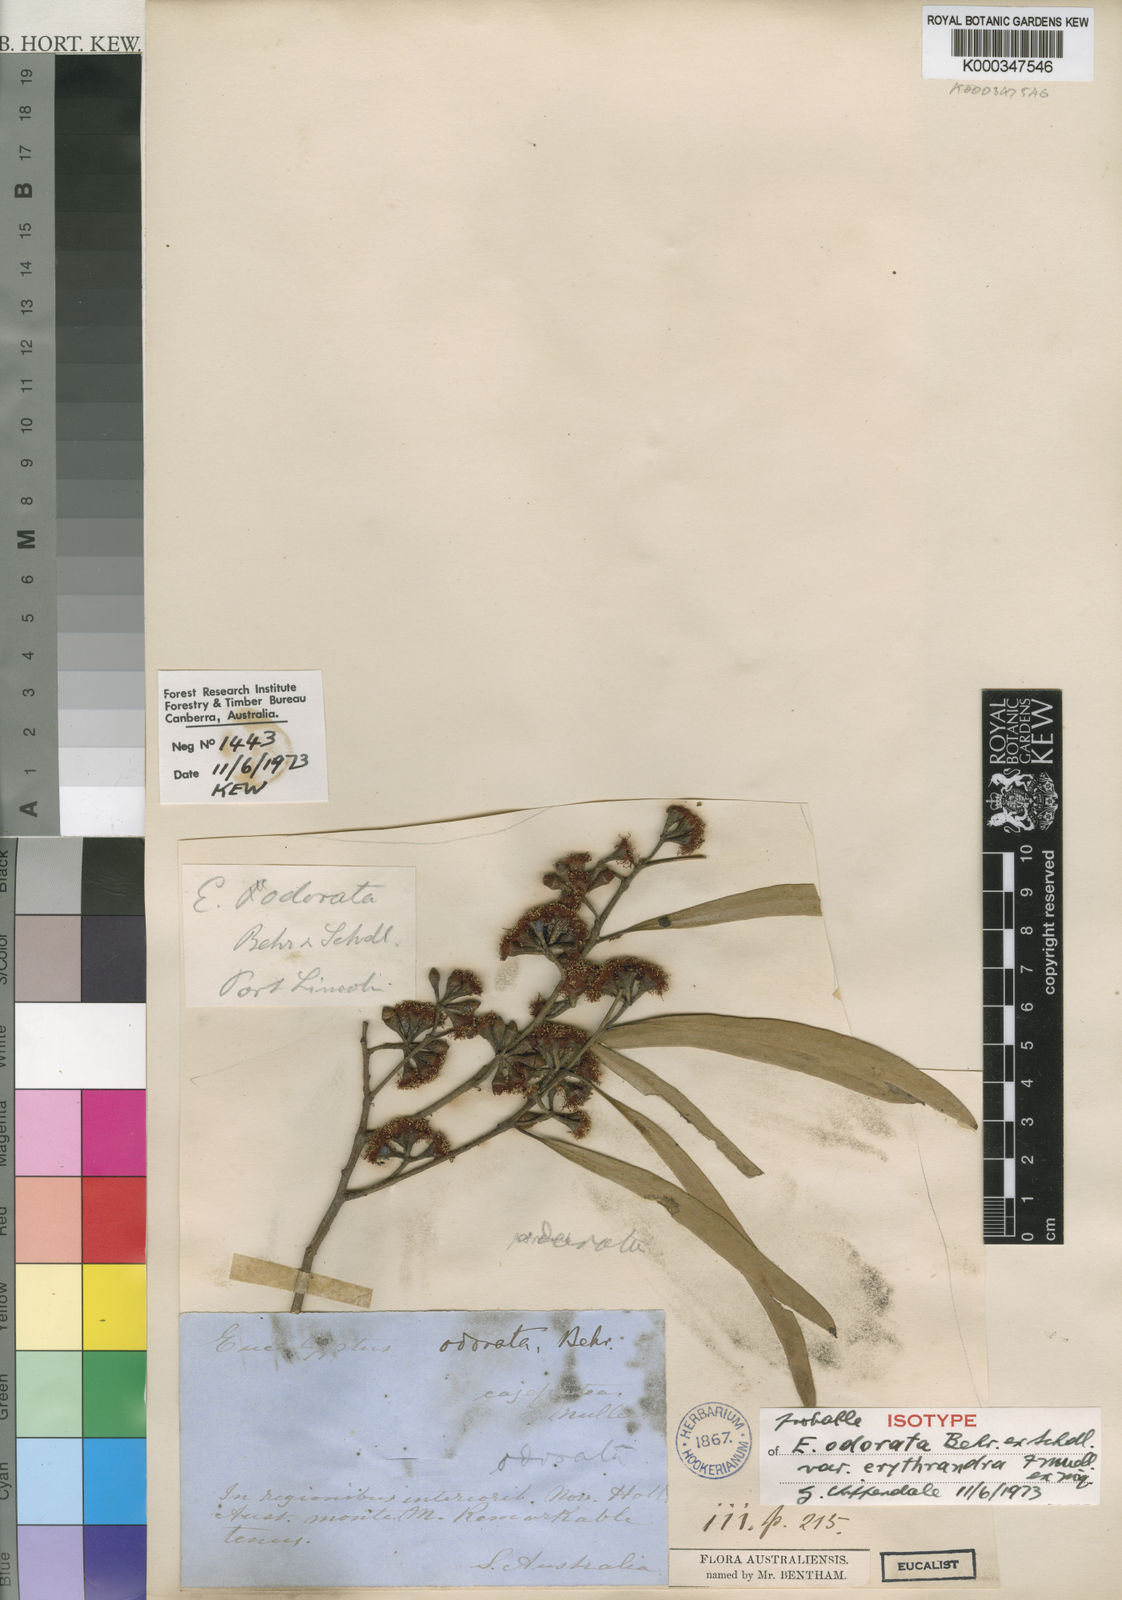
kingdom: Plantae
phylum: Tracheophyta
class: Magnoliopsida
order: Myrtales
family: Myrtaceae
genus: Eucalyptus
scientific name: Eucalyptus odorata
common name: Peppermint box
